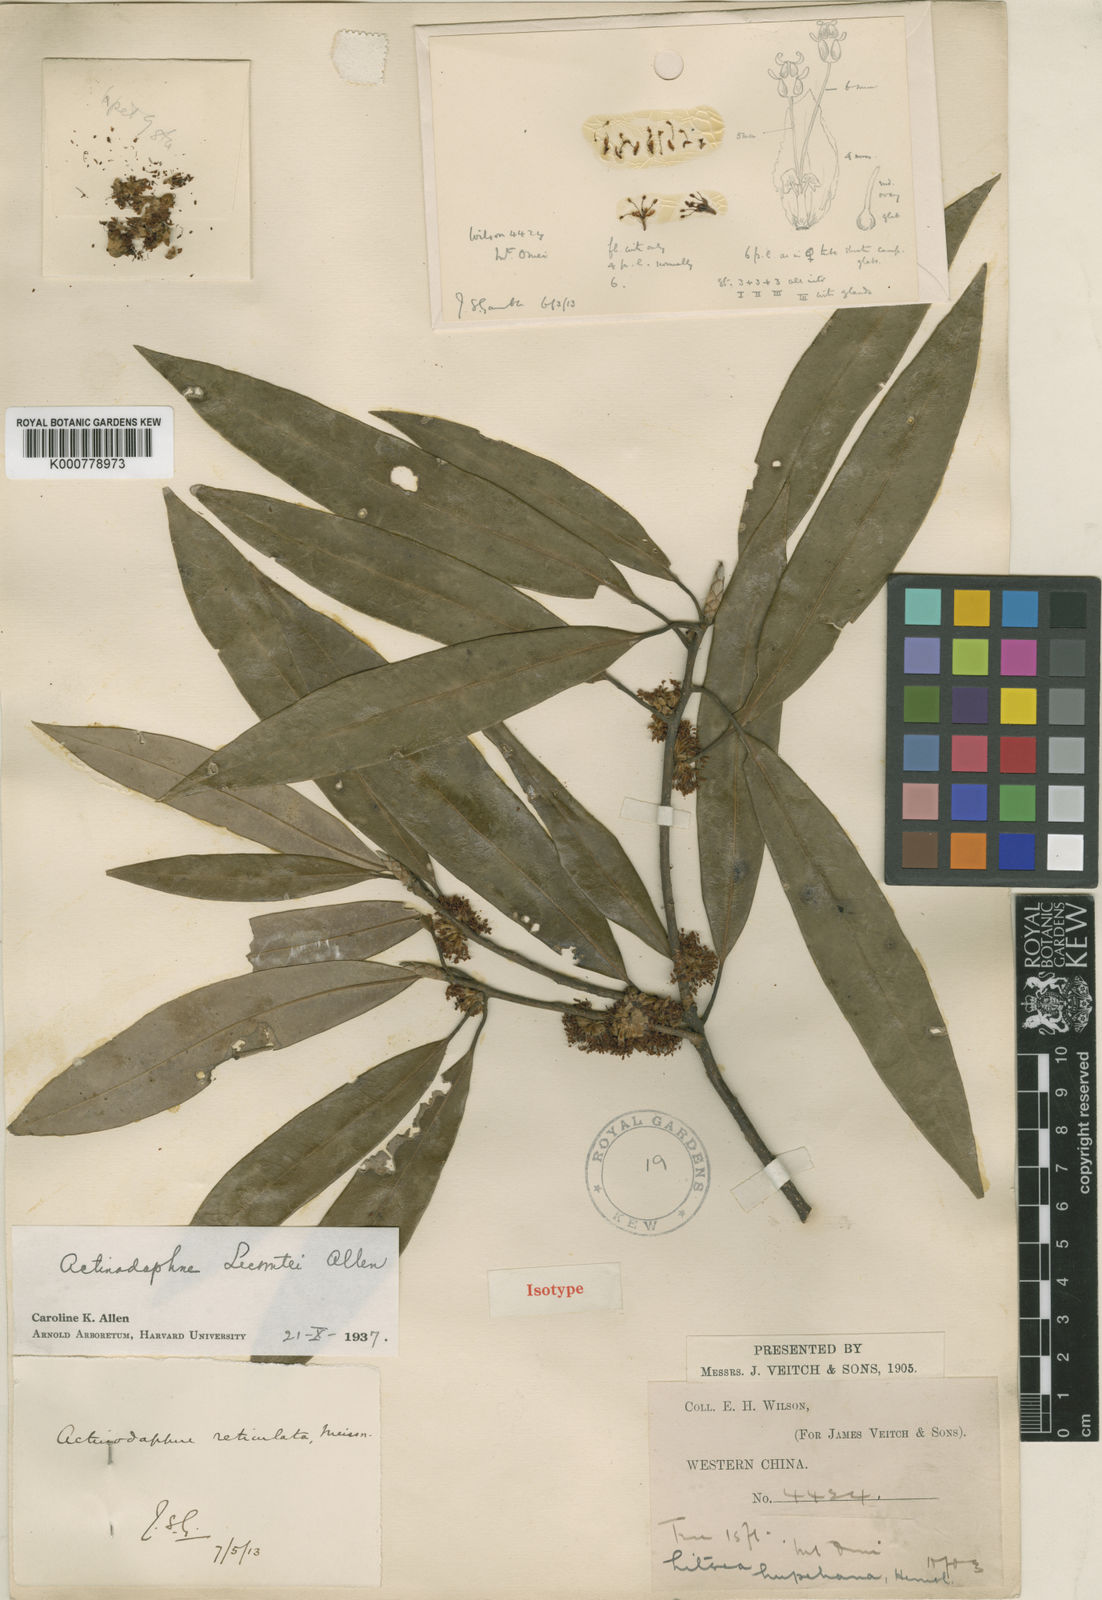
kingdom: Plantae
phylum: Tracheophyta
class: Magnoliopsida
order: Laurales
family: Lauraceae
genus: Litsea
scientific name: Litsea coreana
